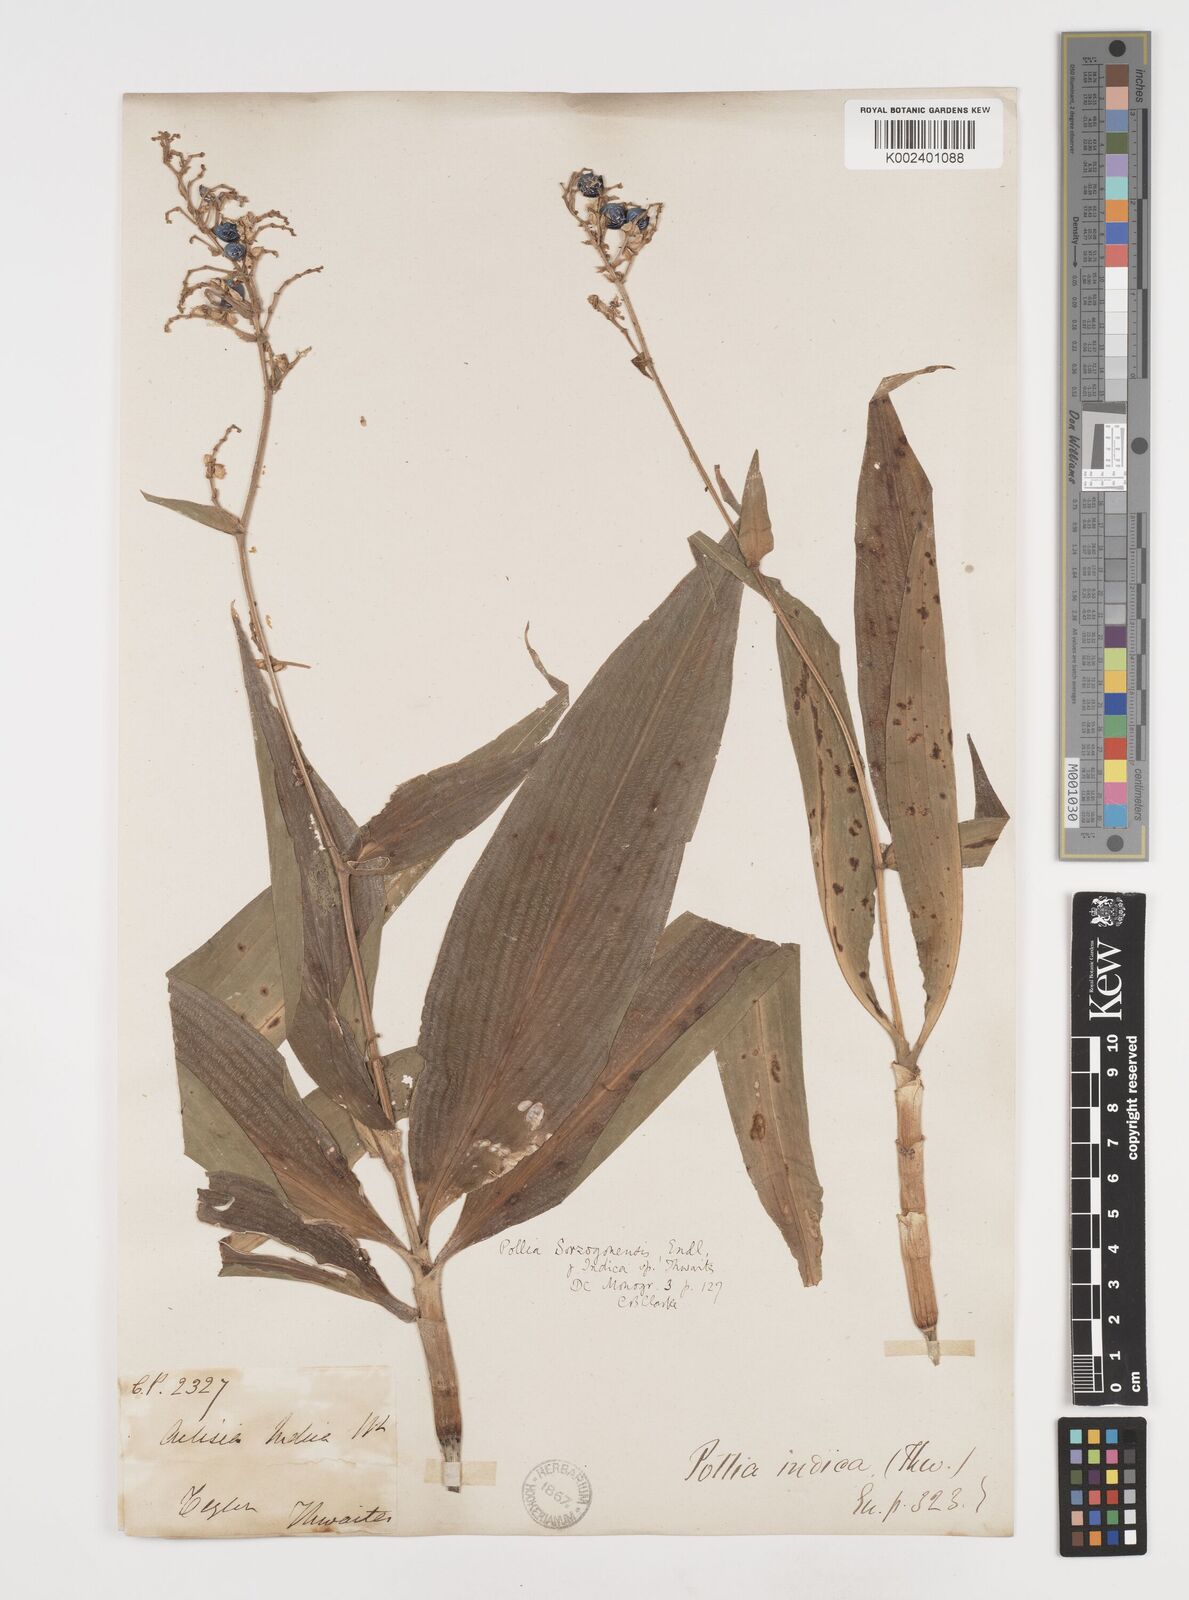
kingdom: Plantae
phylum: Tracheophyta
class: Liliopsida
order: Commelinales
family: Commelinaceae
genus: Pollia
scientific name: Pollia secundiflora
